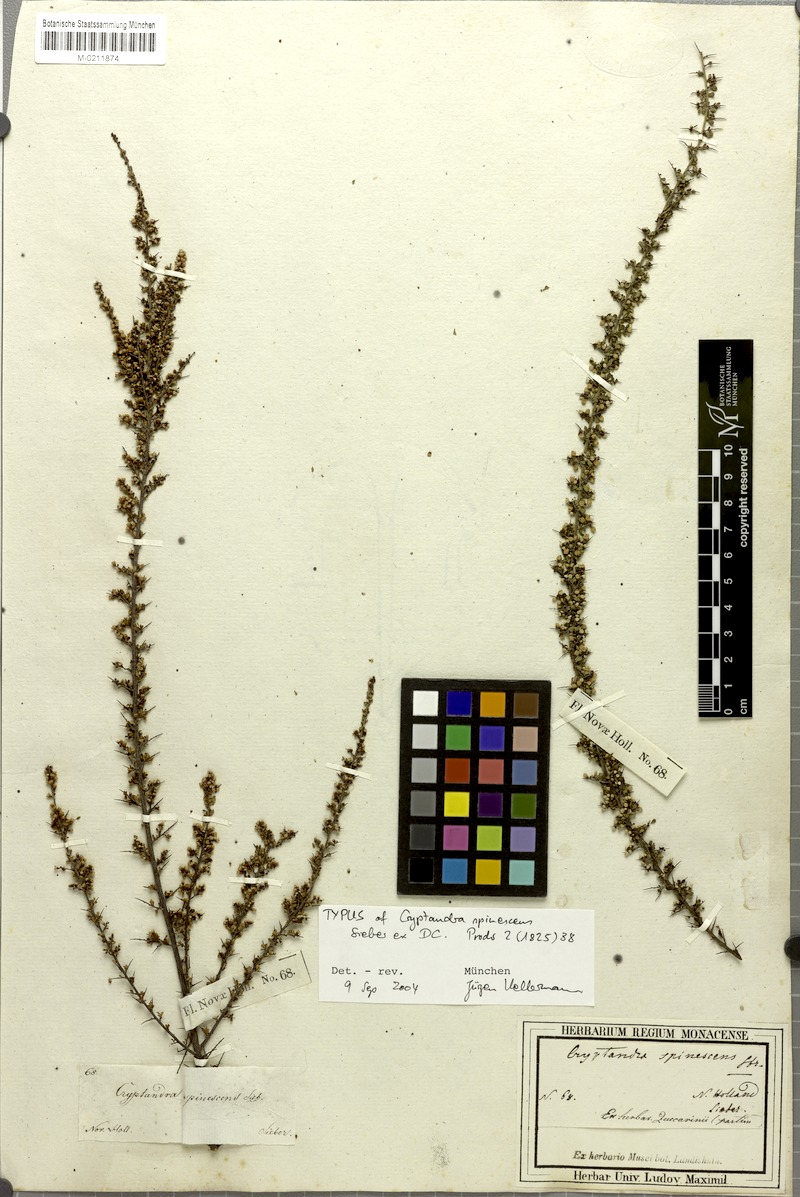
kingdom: Plantae
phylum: Tracheophyta
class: Magnoliopsida
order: Rosales
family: Rhamnaceae
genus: Cryptandra
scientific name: Cryptandra spinescens
